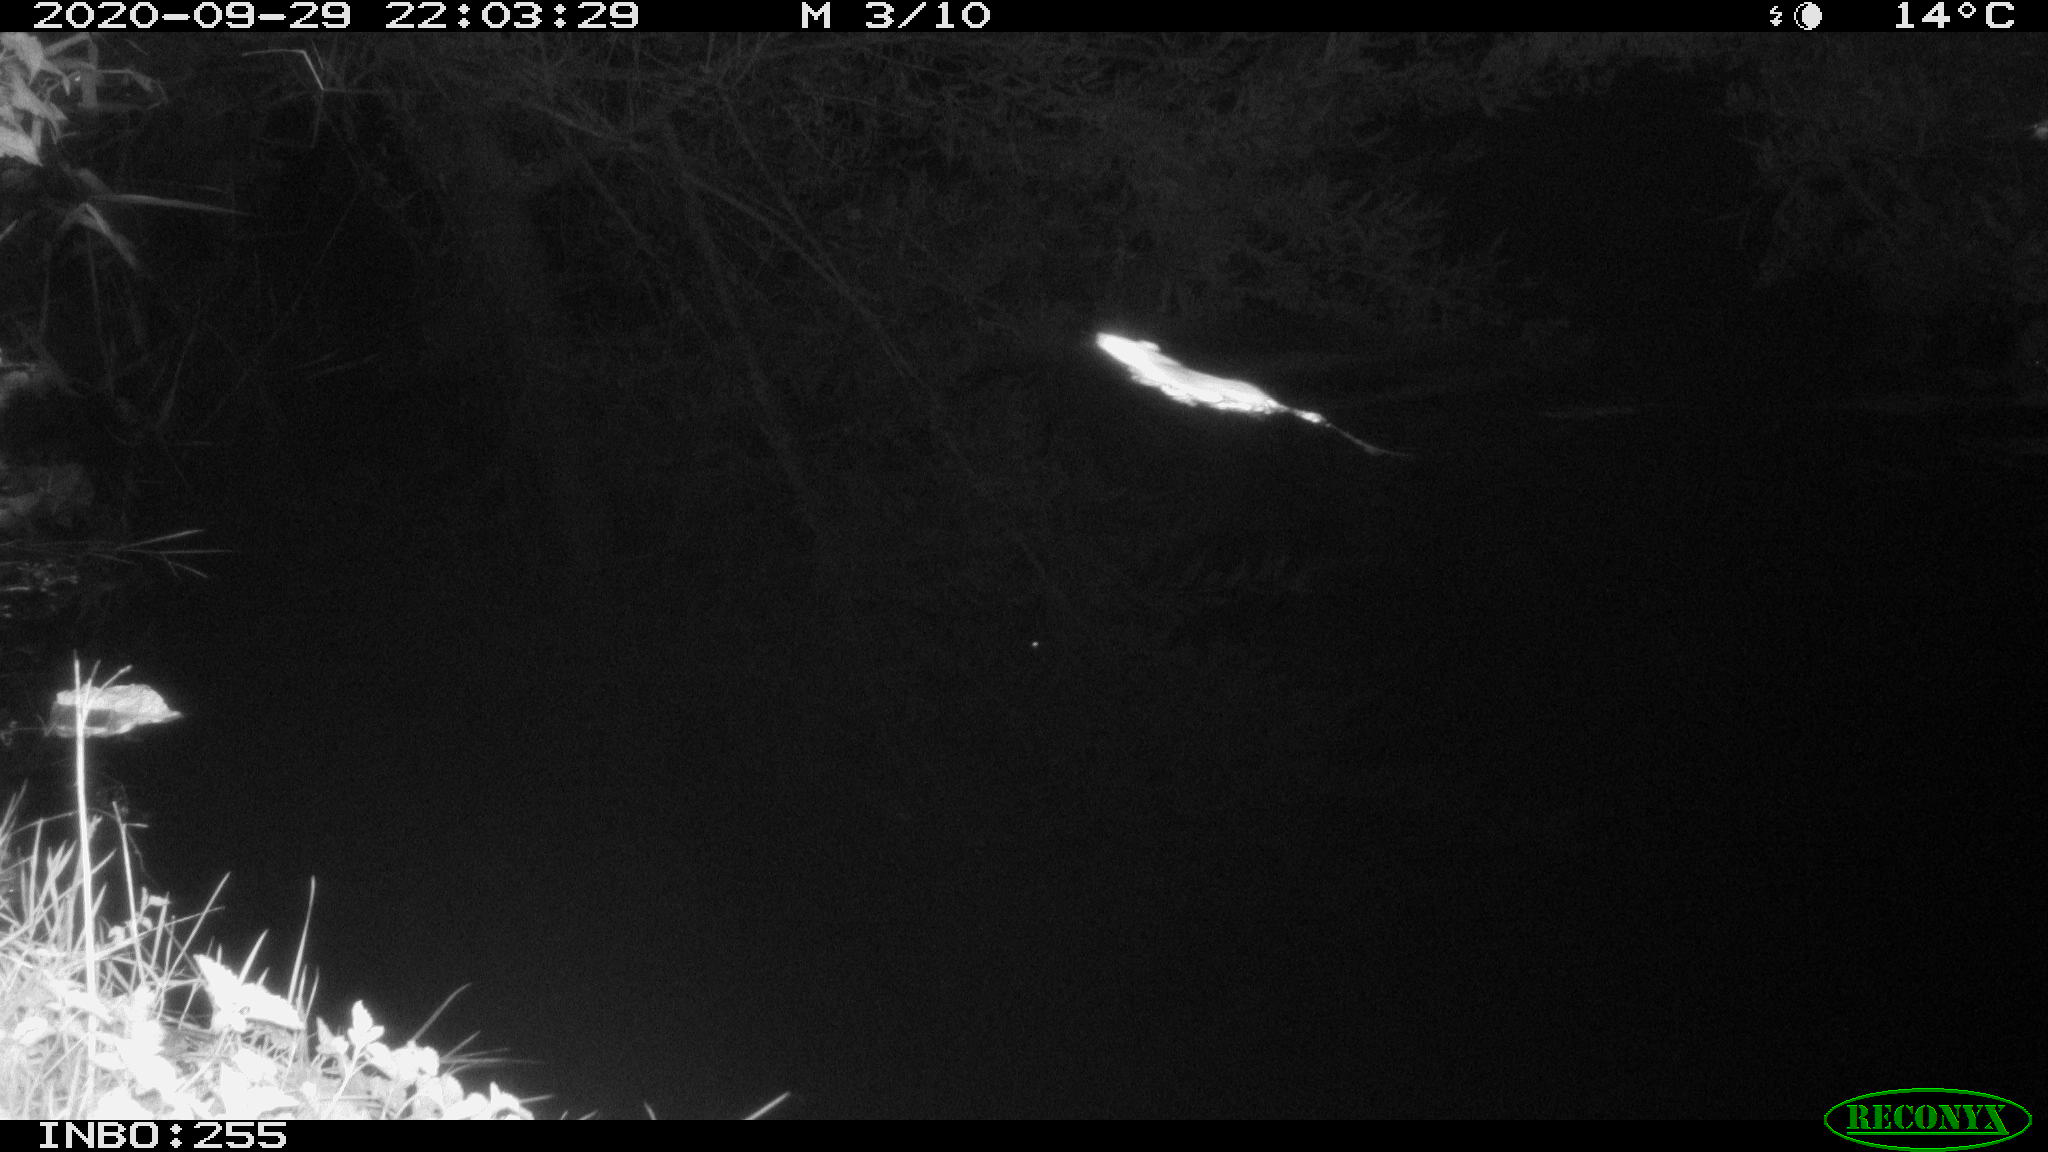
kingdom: Animalia
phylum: Chordata
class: Mammalia
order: Rodentia
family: Muridae
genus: Rattus
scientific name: Rattus norvegicus
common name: Brown rat
